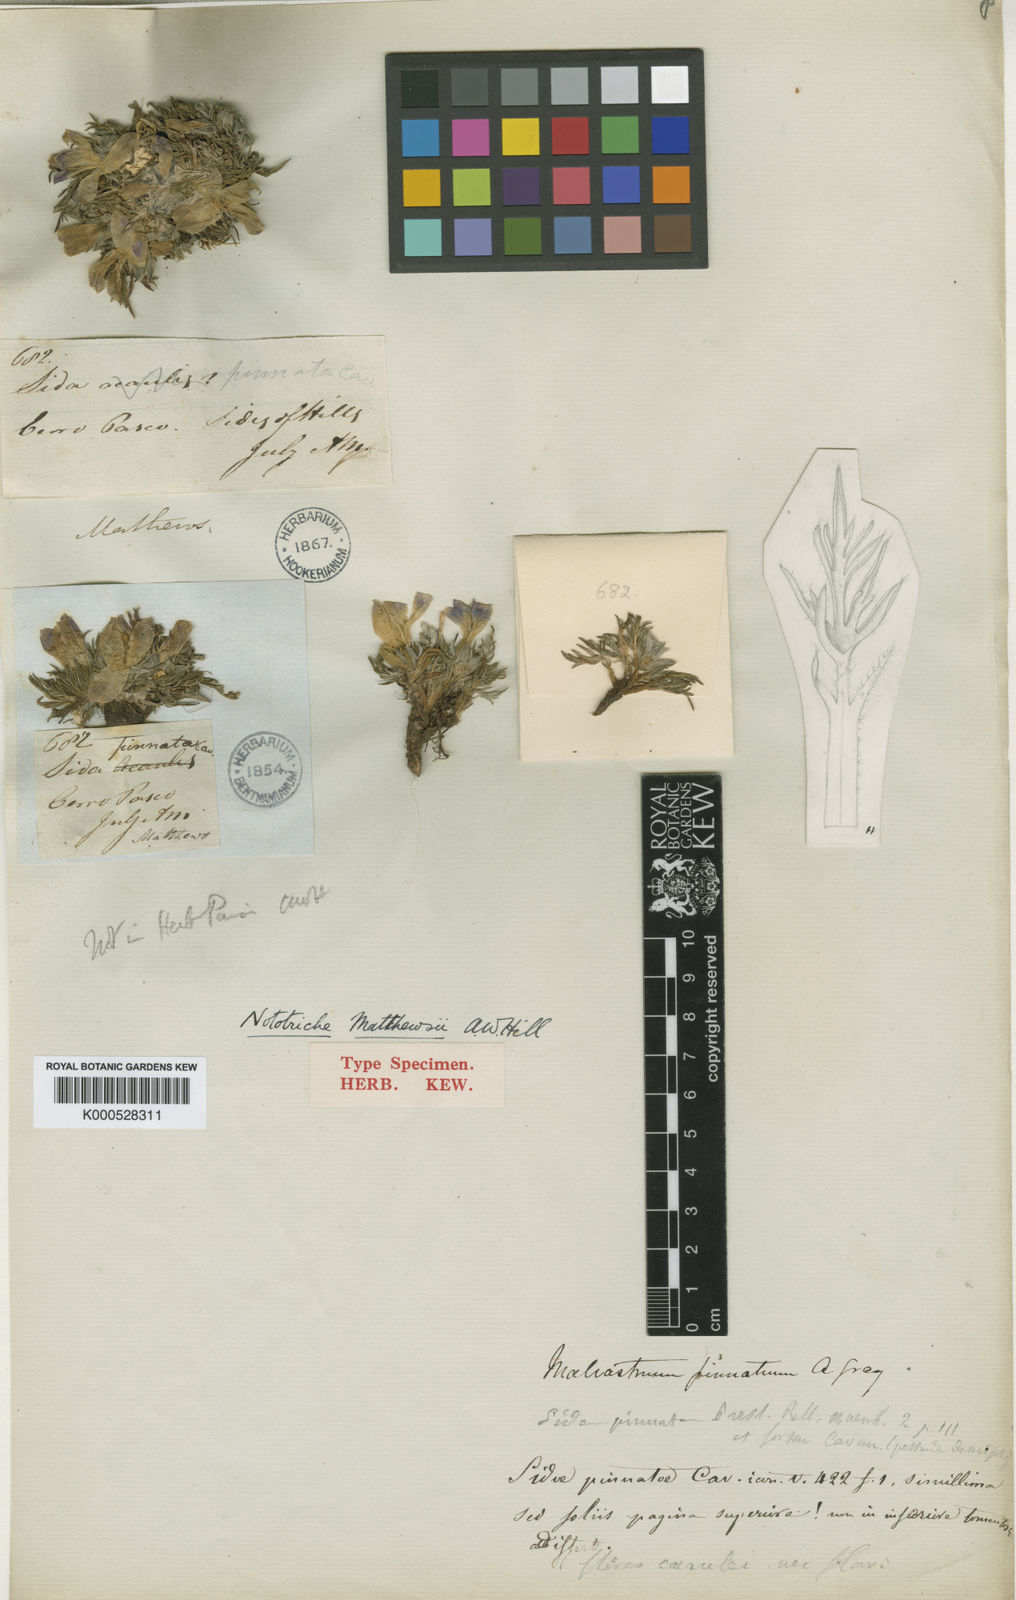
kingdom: Plantae
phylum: Tracheophyta
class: Magnoliopsida
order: Malvales
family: Malvaceae
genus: Nototriche
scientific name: Nototriche pinnata
